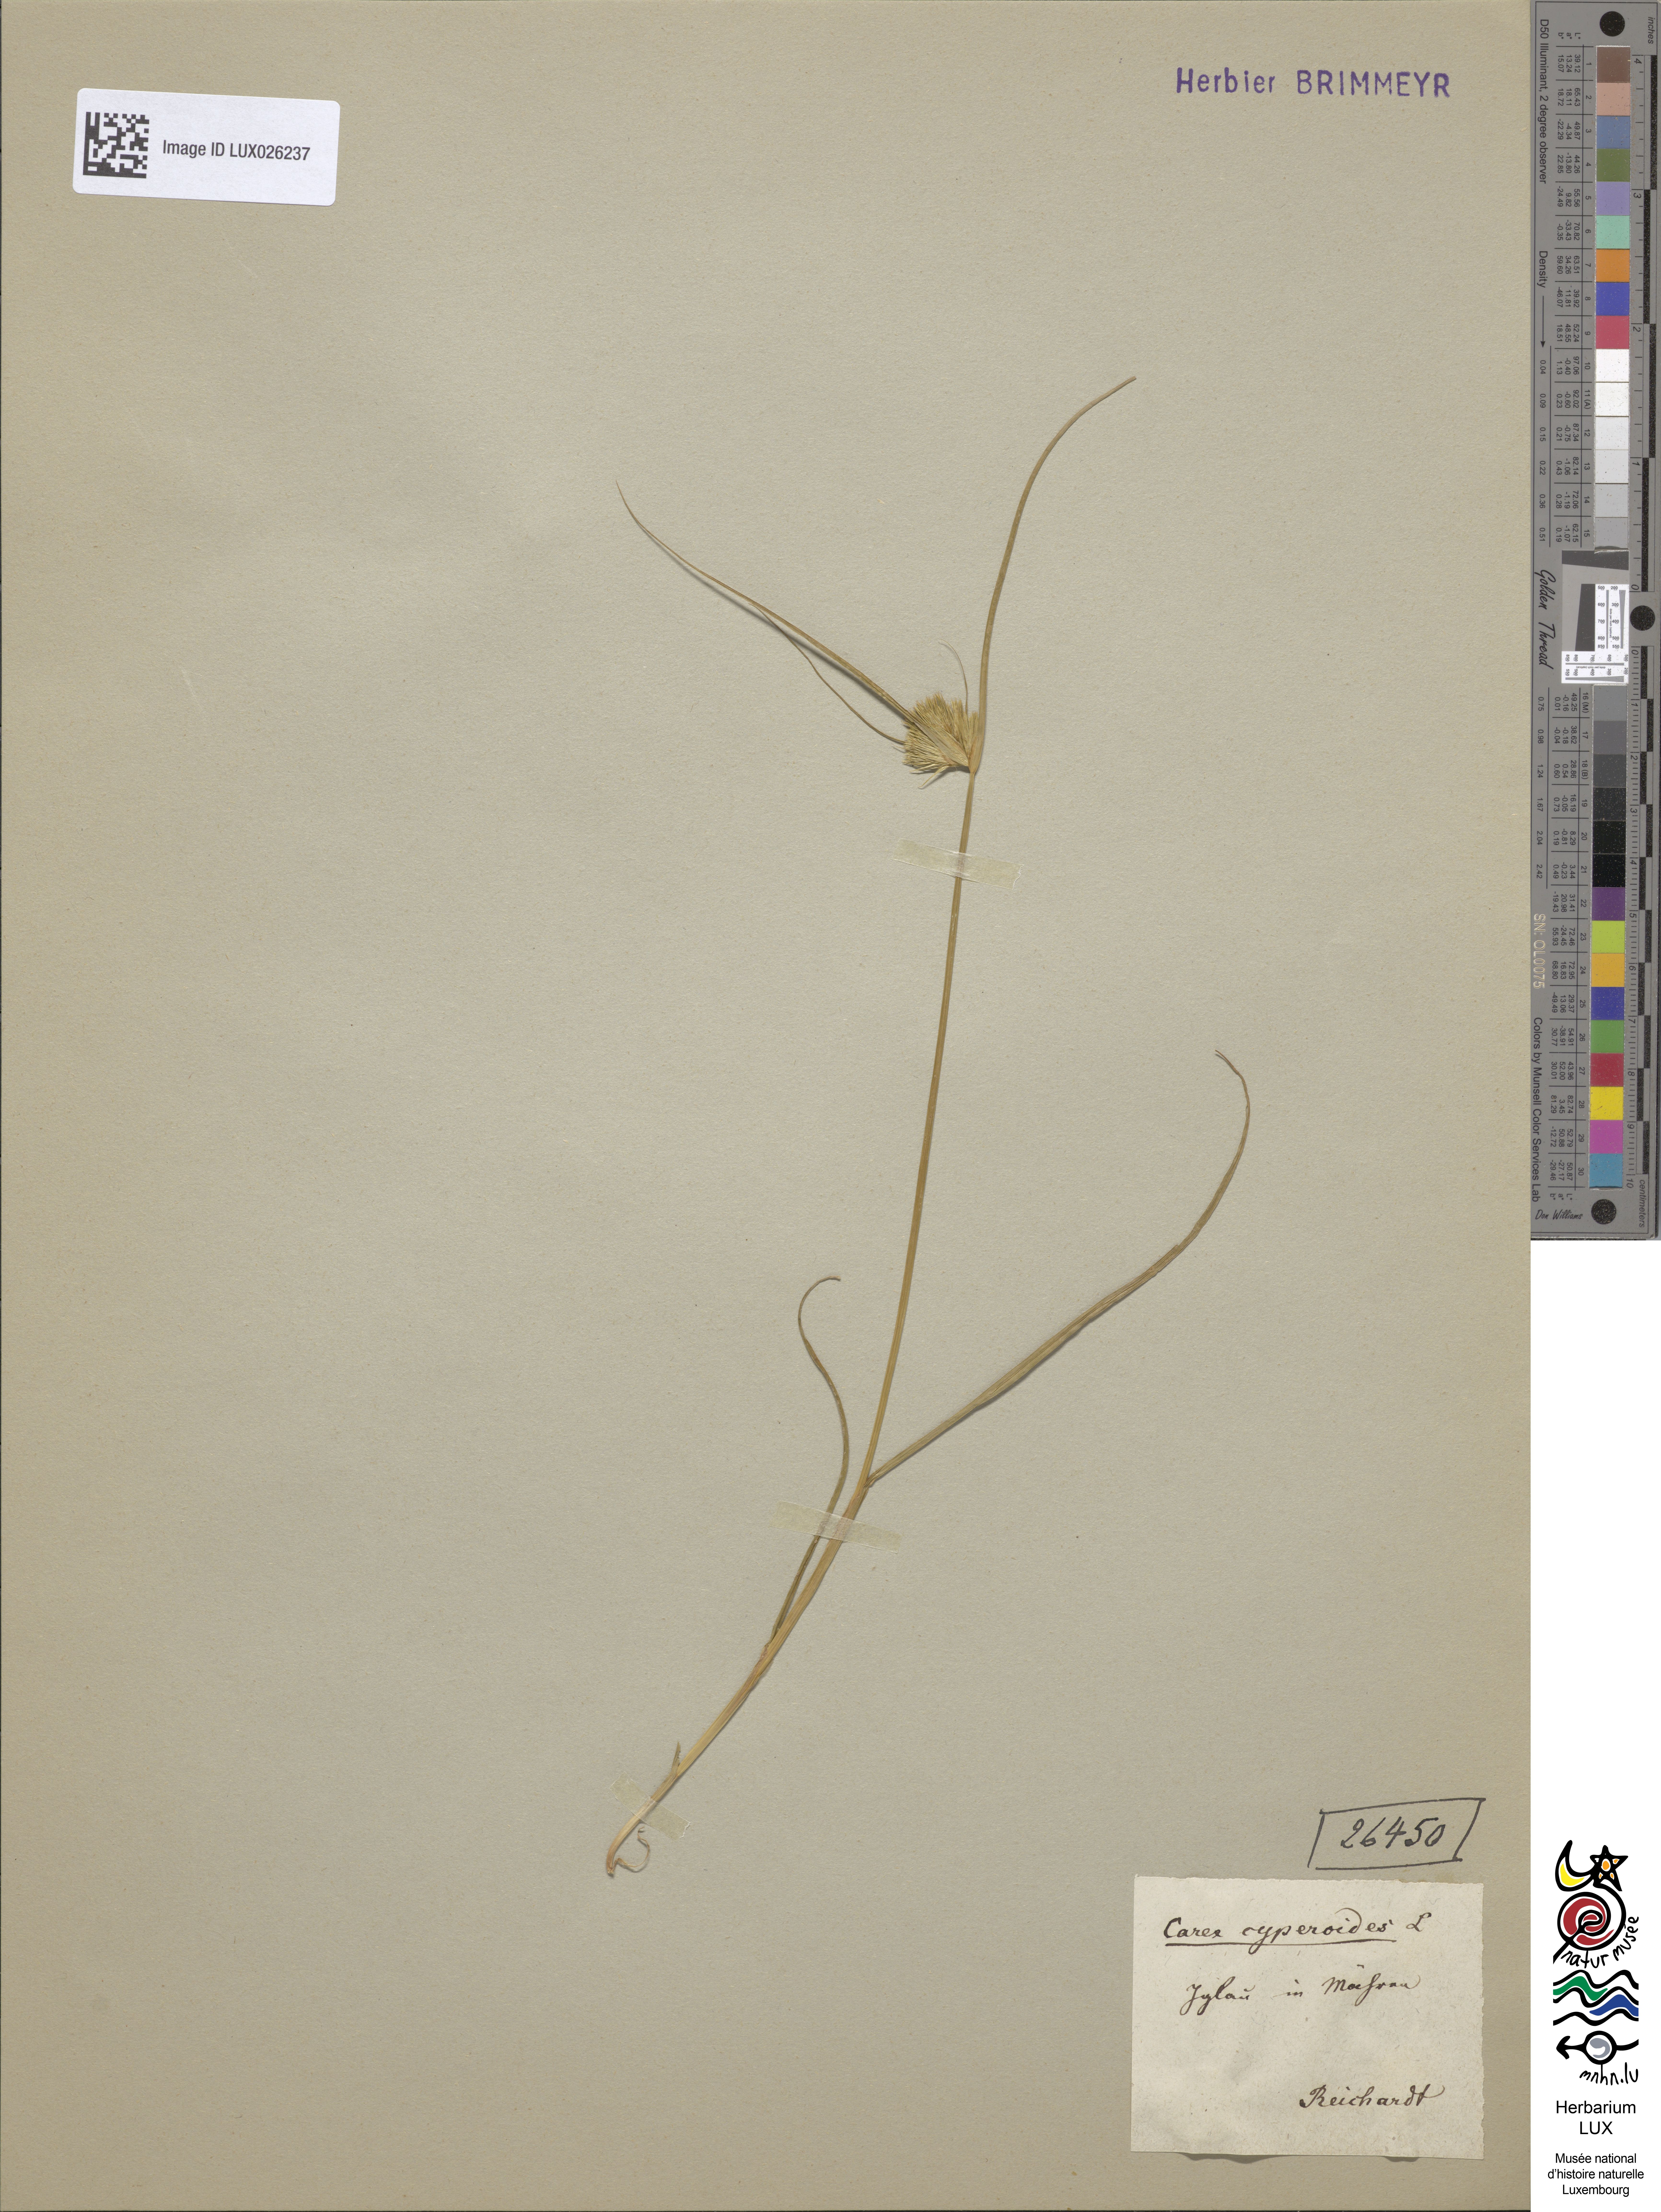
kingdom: Plantae
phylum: Tracheophyta
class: Liliopsida
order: Poales
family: Cyperaceae
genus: Carex
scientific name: Carex bohemica
